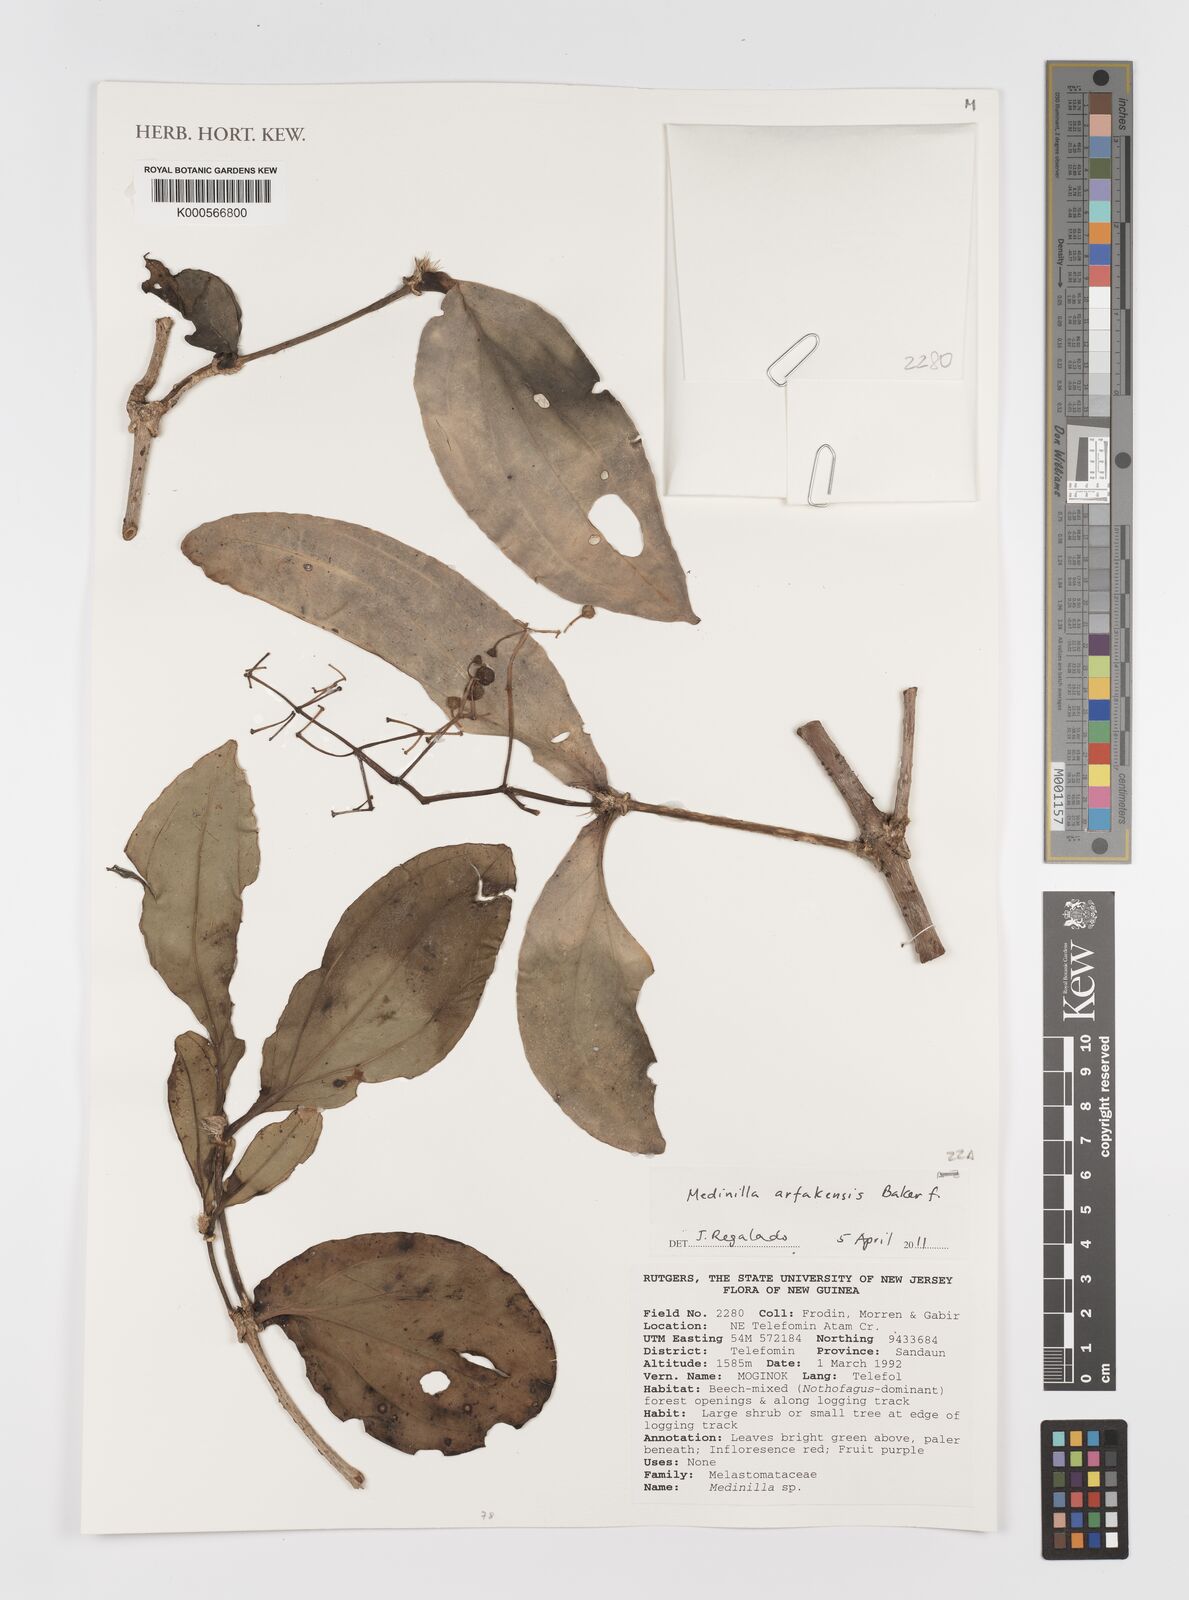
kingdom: Plantae
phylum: Tracheophyta
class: Magnoliopsida
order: Myrtales
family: Melastomataceae
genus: Medinilla
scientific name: Medinilla arfakensis
